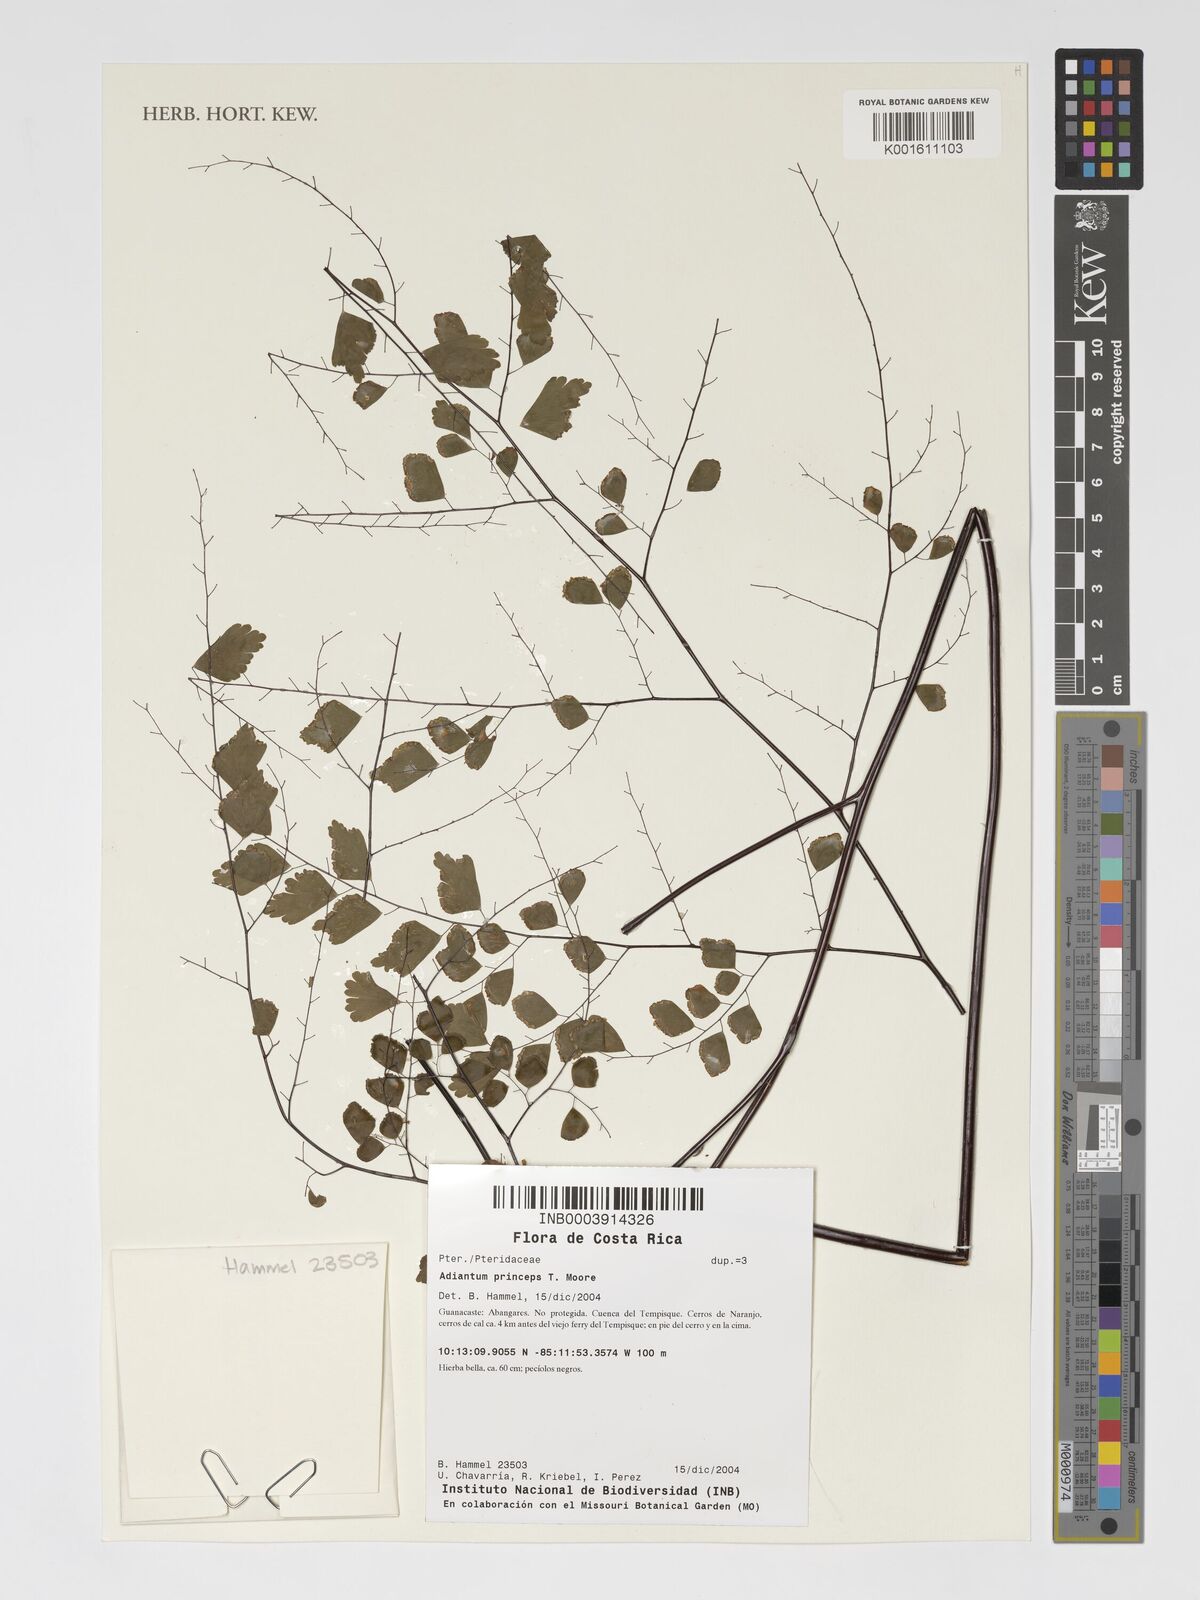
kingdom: Plantae
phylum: Tracheophyta
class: Polypodiopsida
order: Polypodiales
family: Pteridaceae
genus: Adiantum
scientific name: Adiantum amplum
